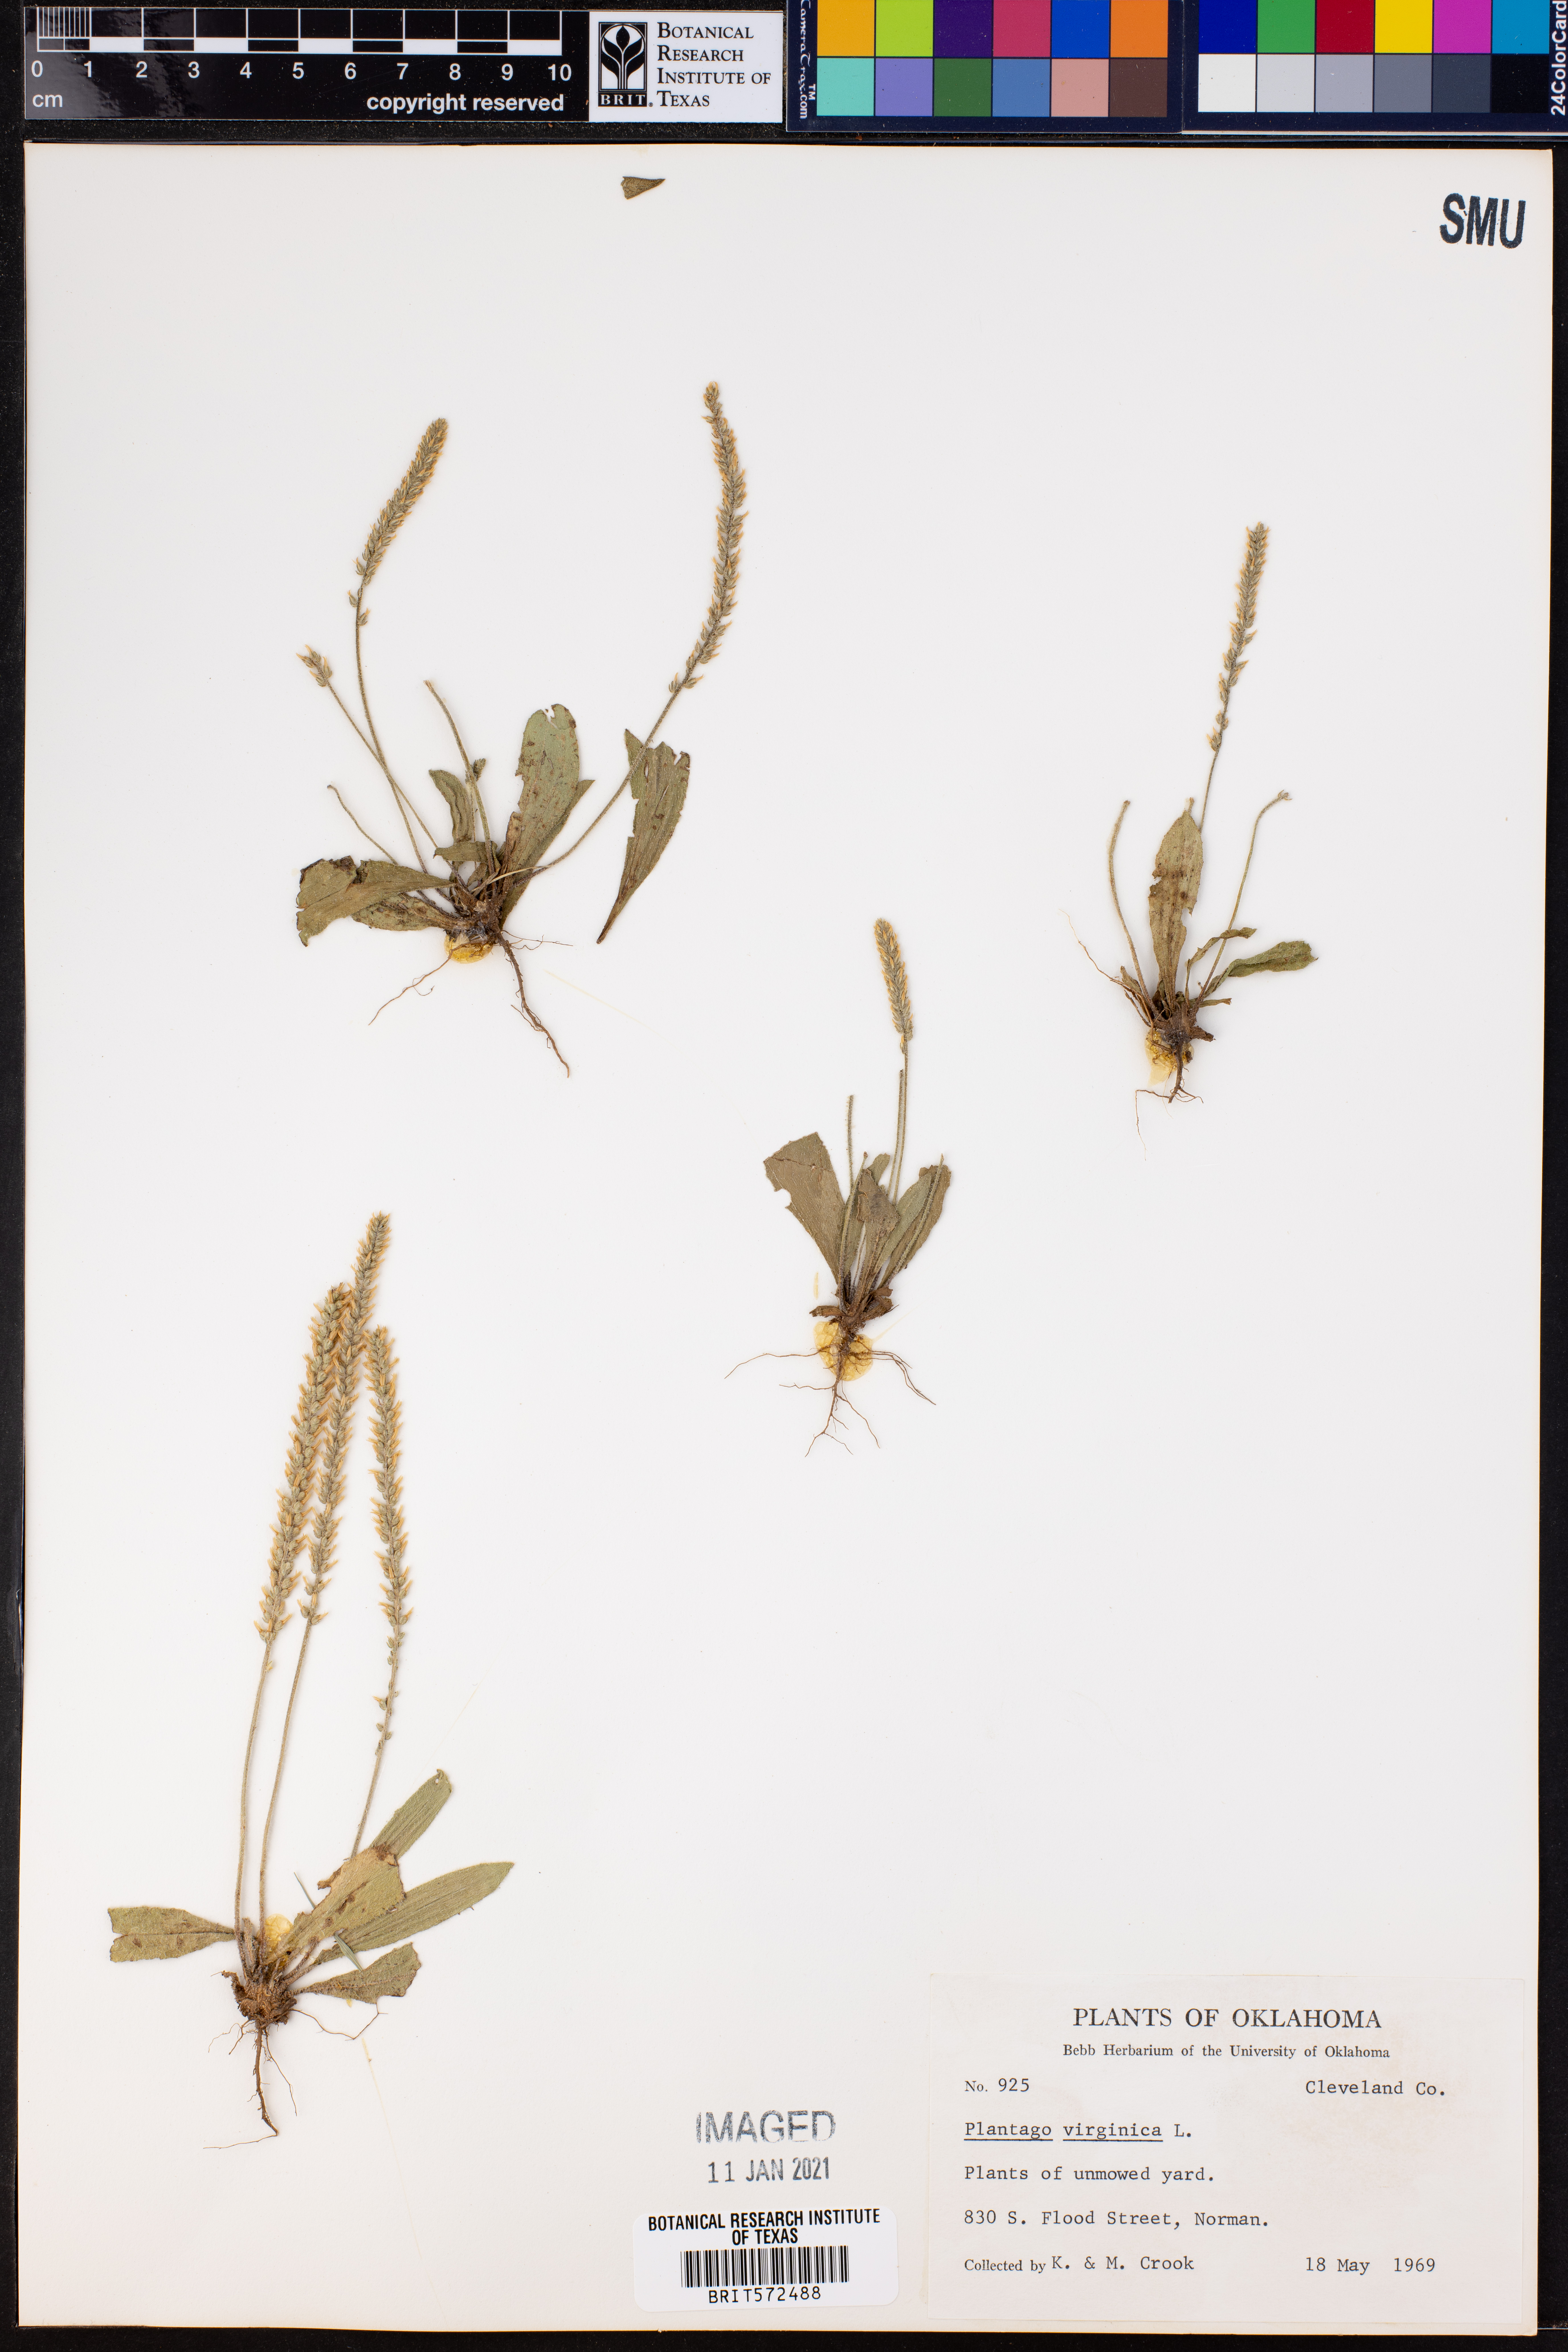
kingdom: Plantae
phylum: Tracheophyta
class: Magnoliopsida
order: Lamiales
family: Plantaginaceae
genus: Plantago
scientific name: Plantago virginica
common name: Hoary plantain
